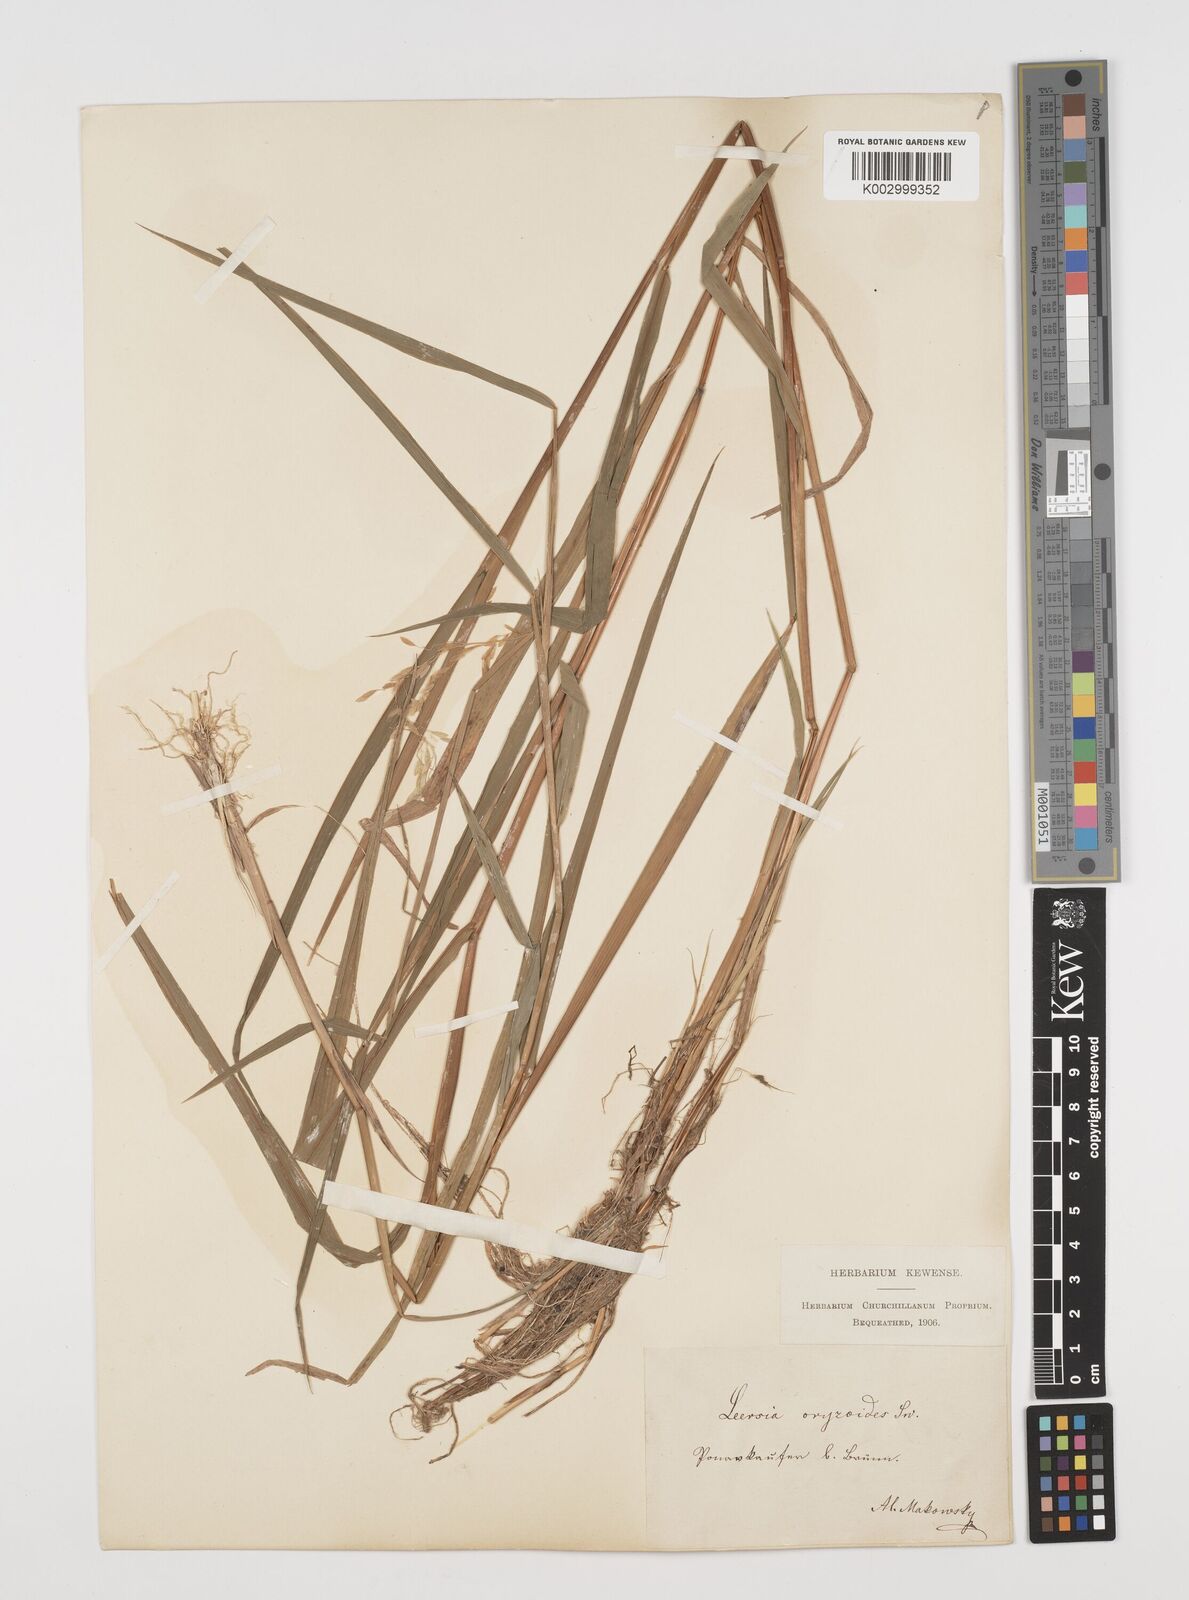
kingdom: Plantae
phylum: Tracheophyta
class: Liliopsida
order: Poales
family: Poaceae
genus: Leersia
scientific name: Leersia oryzoides
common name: Cut-grass
